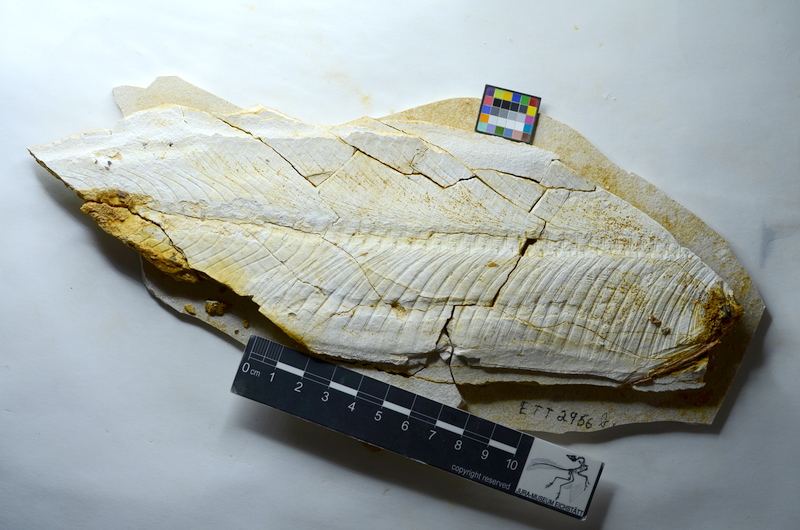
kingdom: Animalia
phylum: Chordata
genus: Thrissops
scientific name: Thrissops formosus
